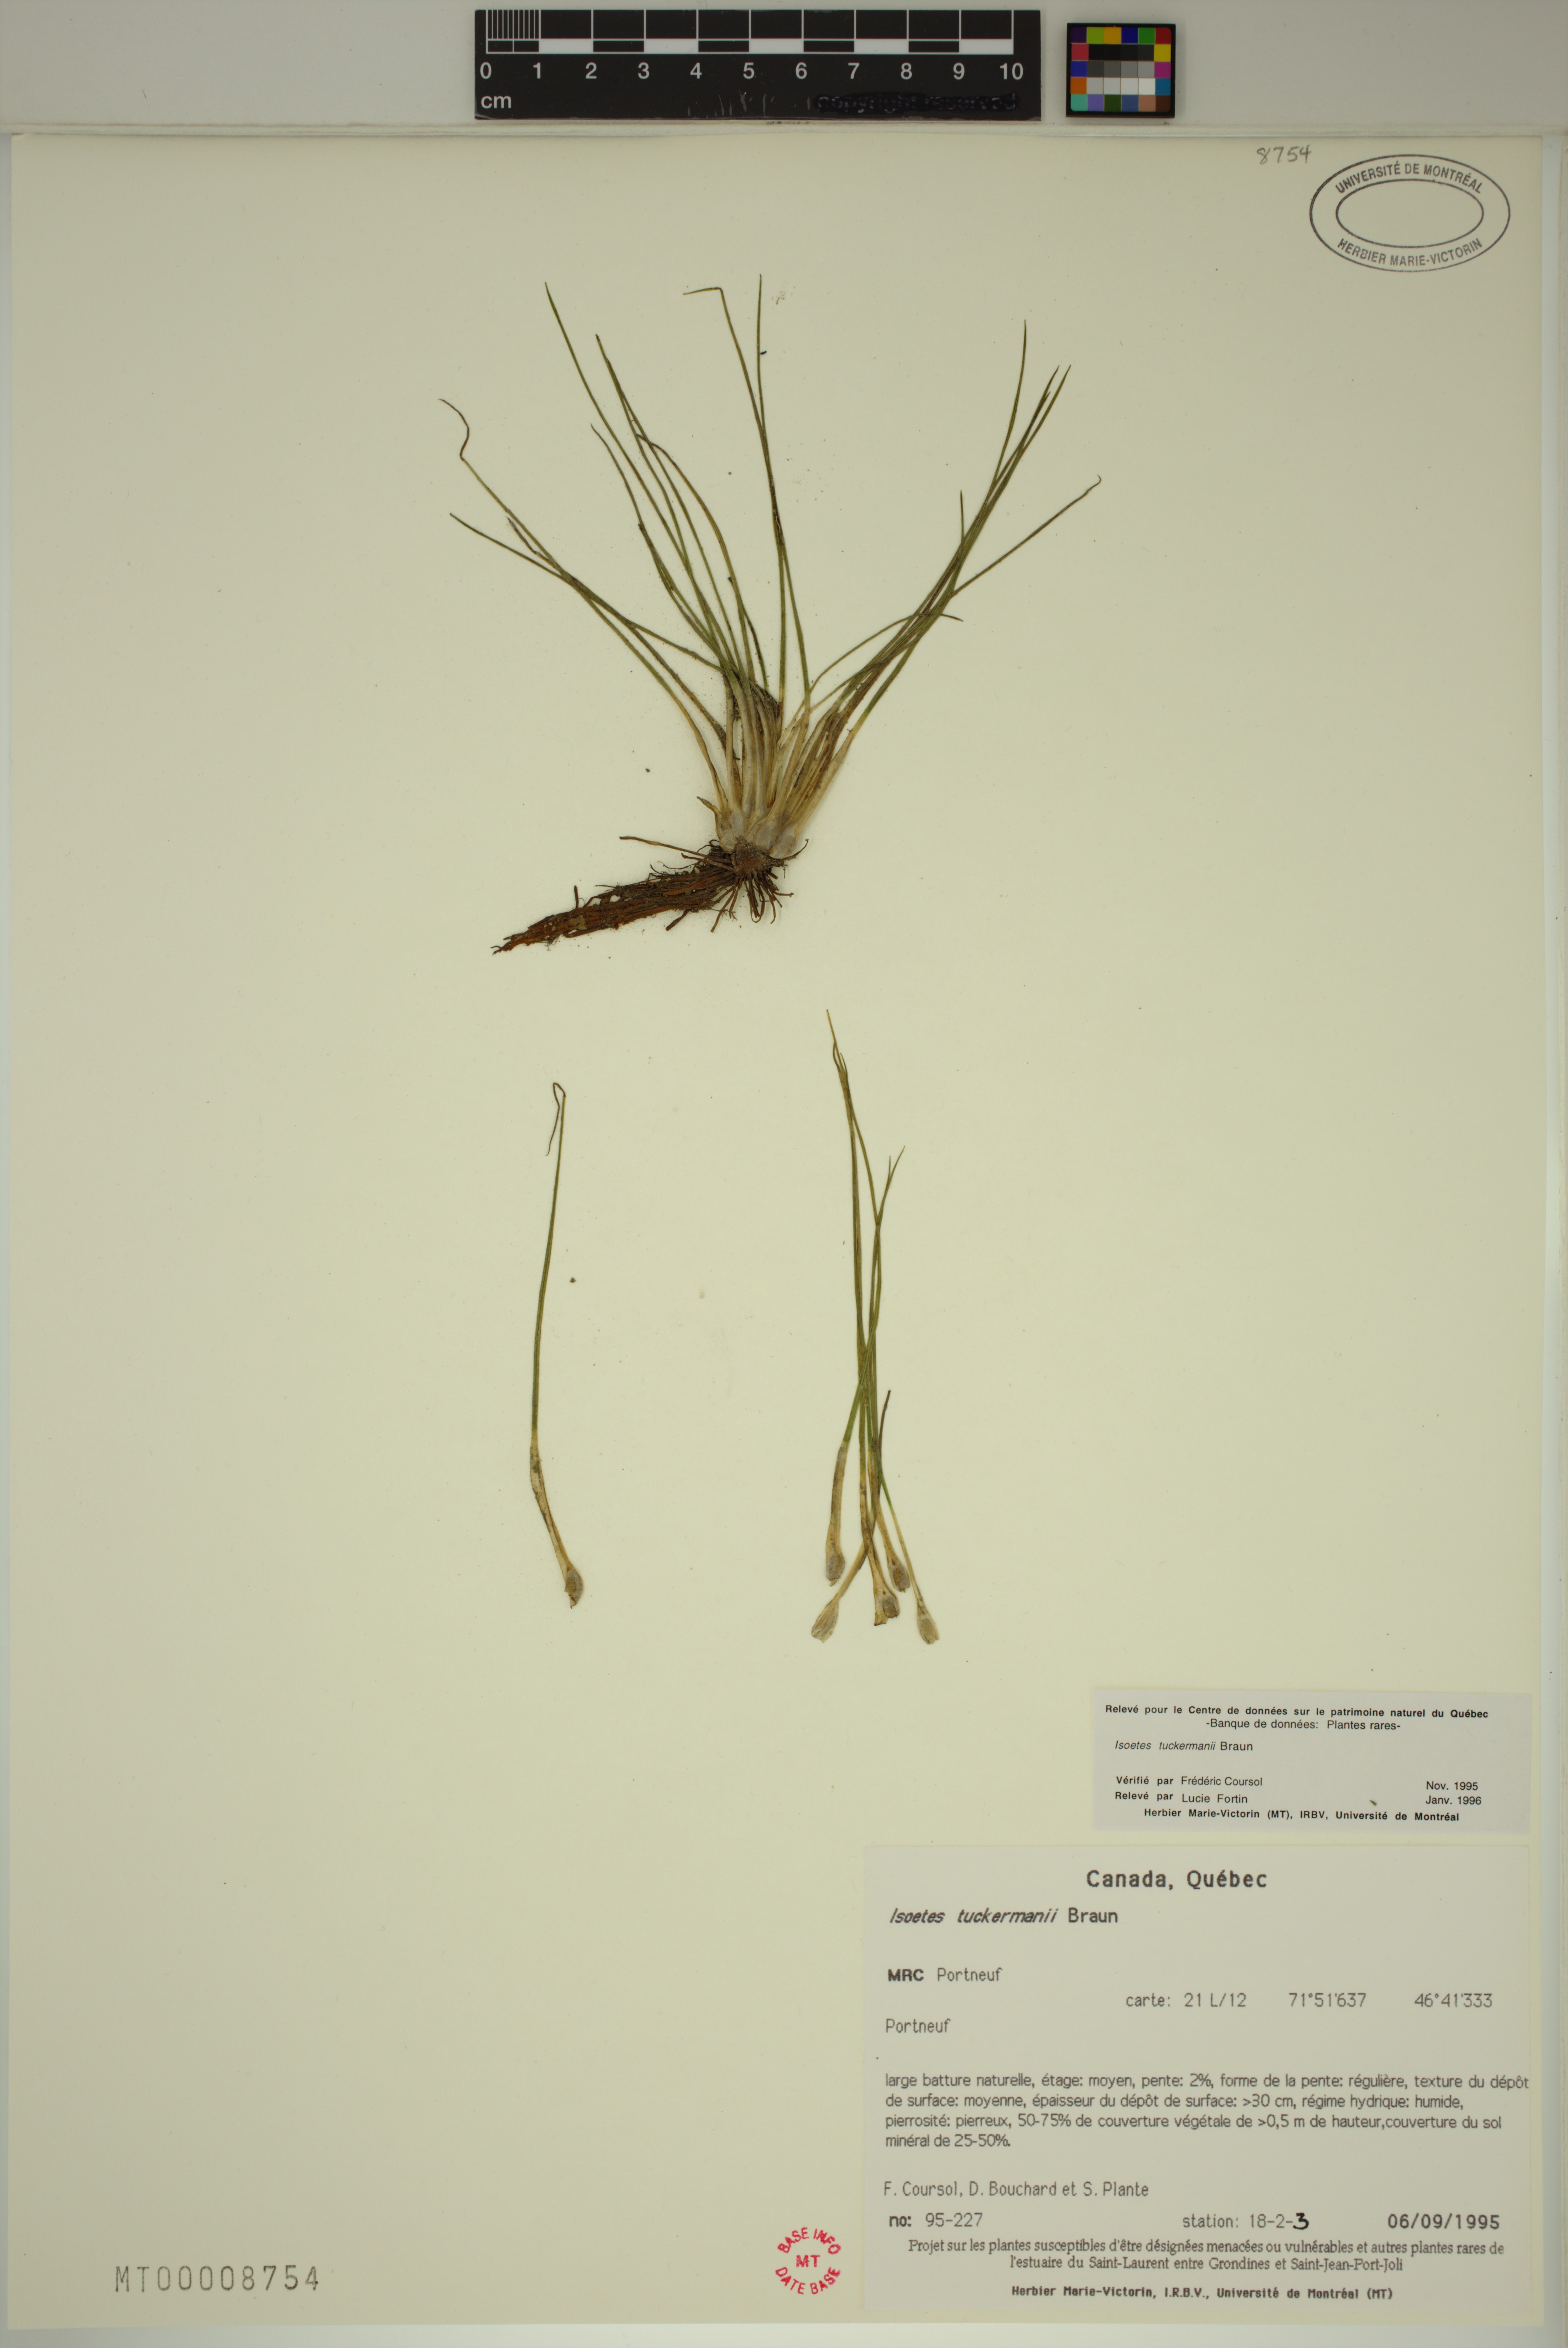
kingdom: Plantae
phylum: Tracheophyta
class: Lycopodiopsida
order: Isoetales
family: Isoetaceae
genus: Isoetes
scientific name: Isoetes laurentiana
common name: St. lawrence quillwort
